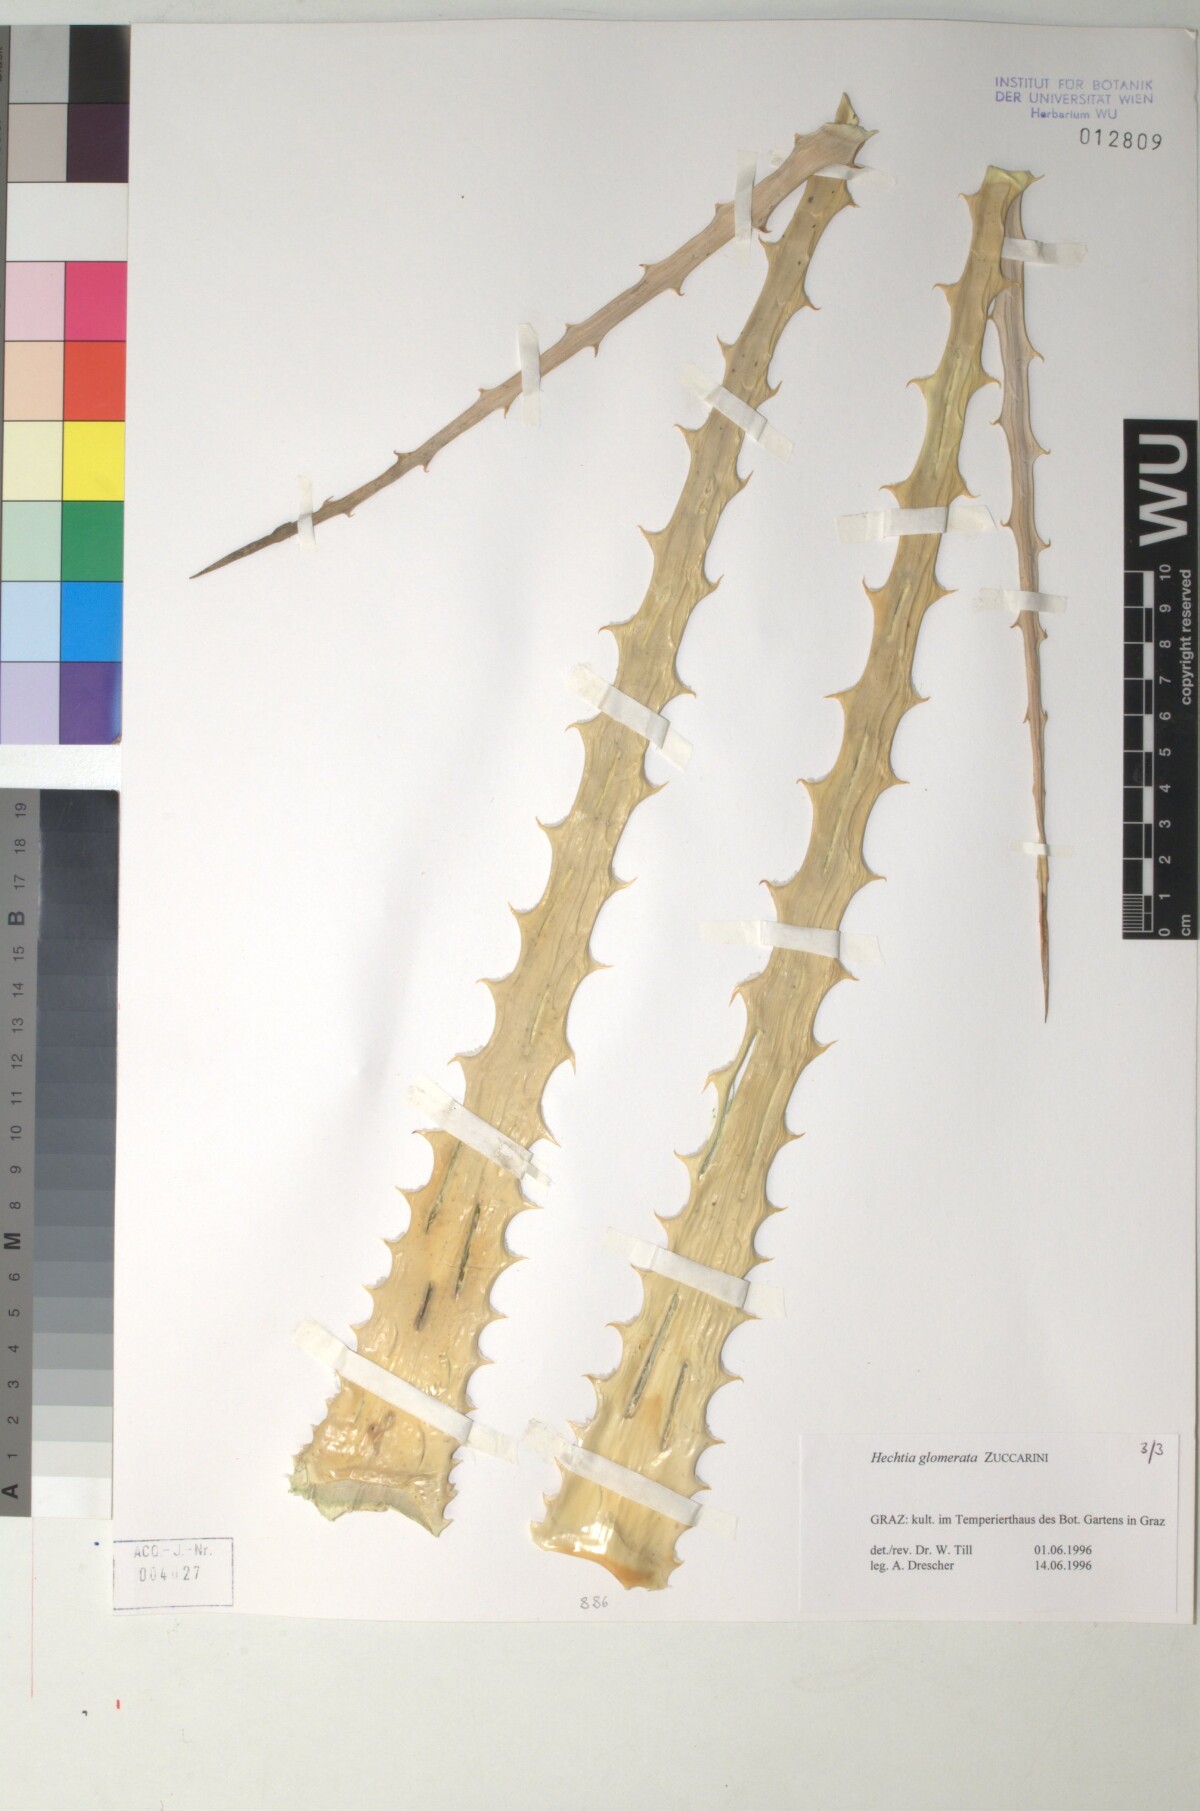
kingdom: Plantae
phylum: Tracheophyta
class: Liliopsida
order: Poales
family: Bromeliaceae
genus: Hechtia
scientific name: Hechtia glomerata
